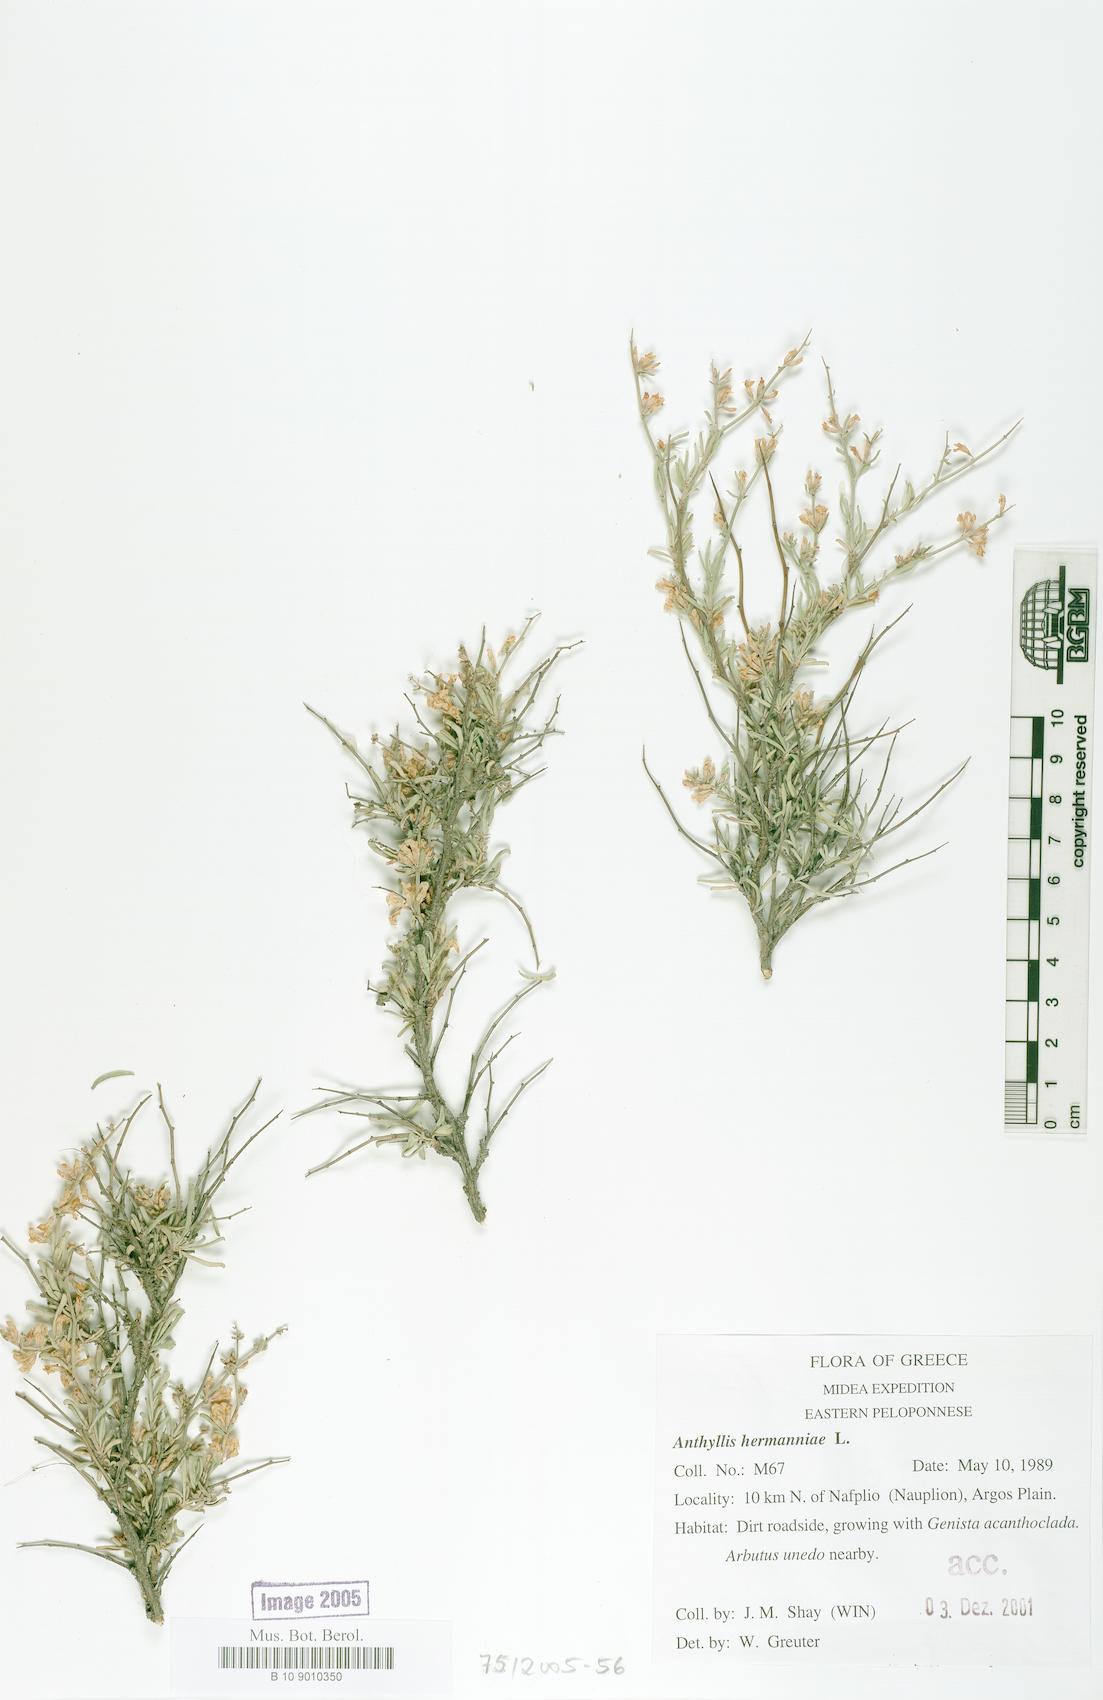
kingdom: Plantae
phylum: Tracheophyta
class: Magnoliopsida
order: Fabales
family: Fabaceae
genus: Anthyllis
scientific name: Anthyllis hermanniae
